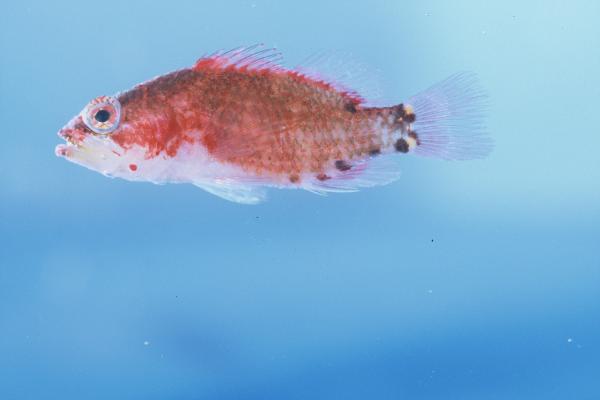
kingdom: Animalia
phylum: Chordata
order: Perciformes
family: Serranidae
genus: Plectranthias
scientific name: Plectranthias longimanus
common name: Longfin perchlet
